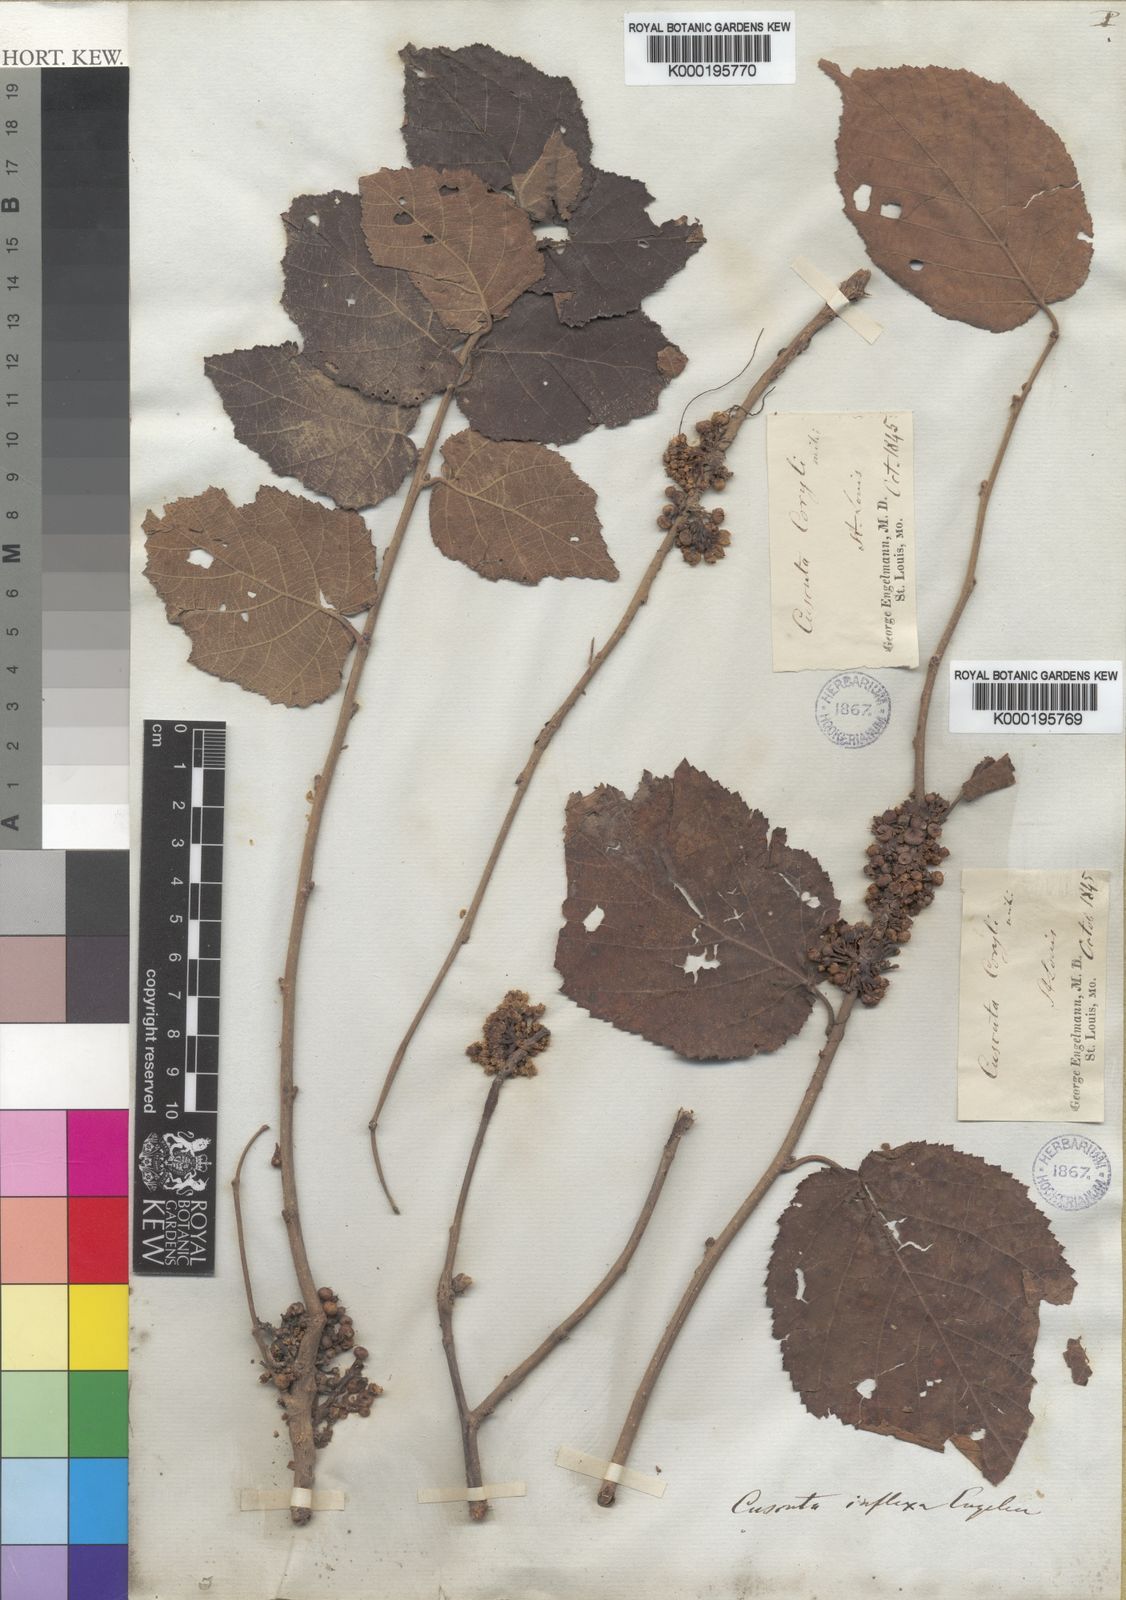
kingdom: Plantae
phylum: Tracheophyta
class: Magnoliopsida
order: Solanales
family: Convolvulaceae
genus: Cuscuta
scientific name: Cuscuta coryli
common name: Hazel dodder
